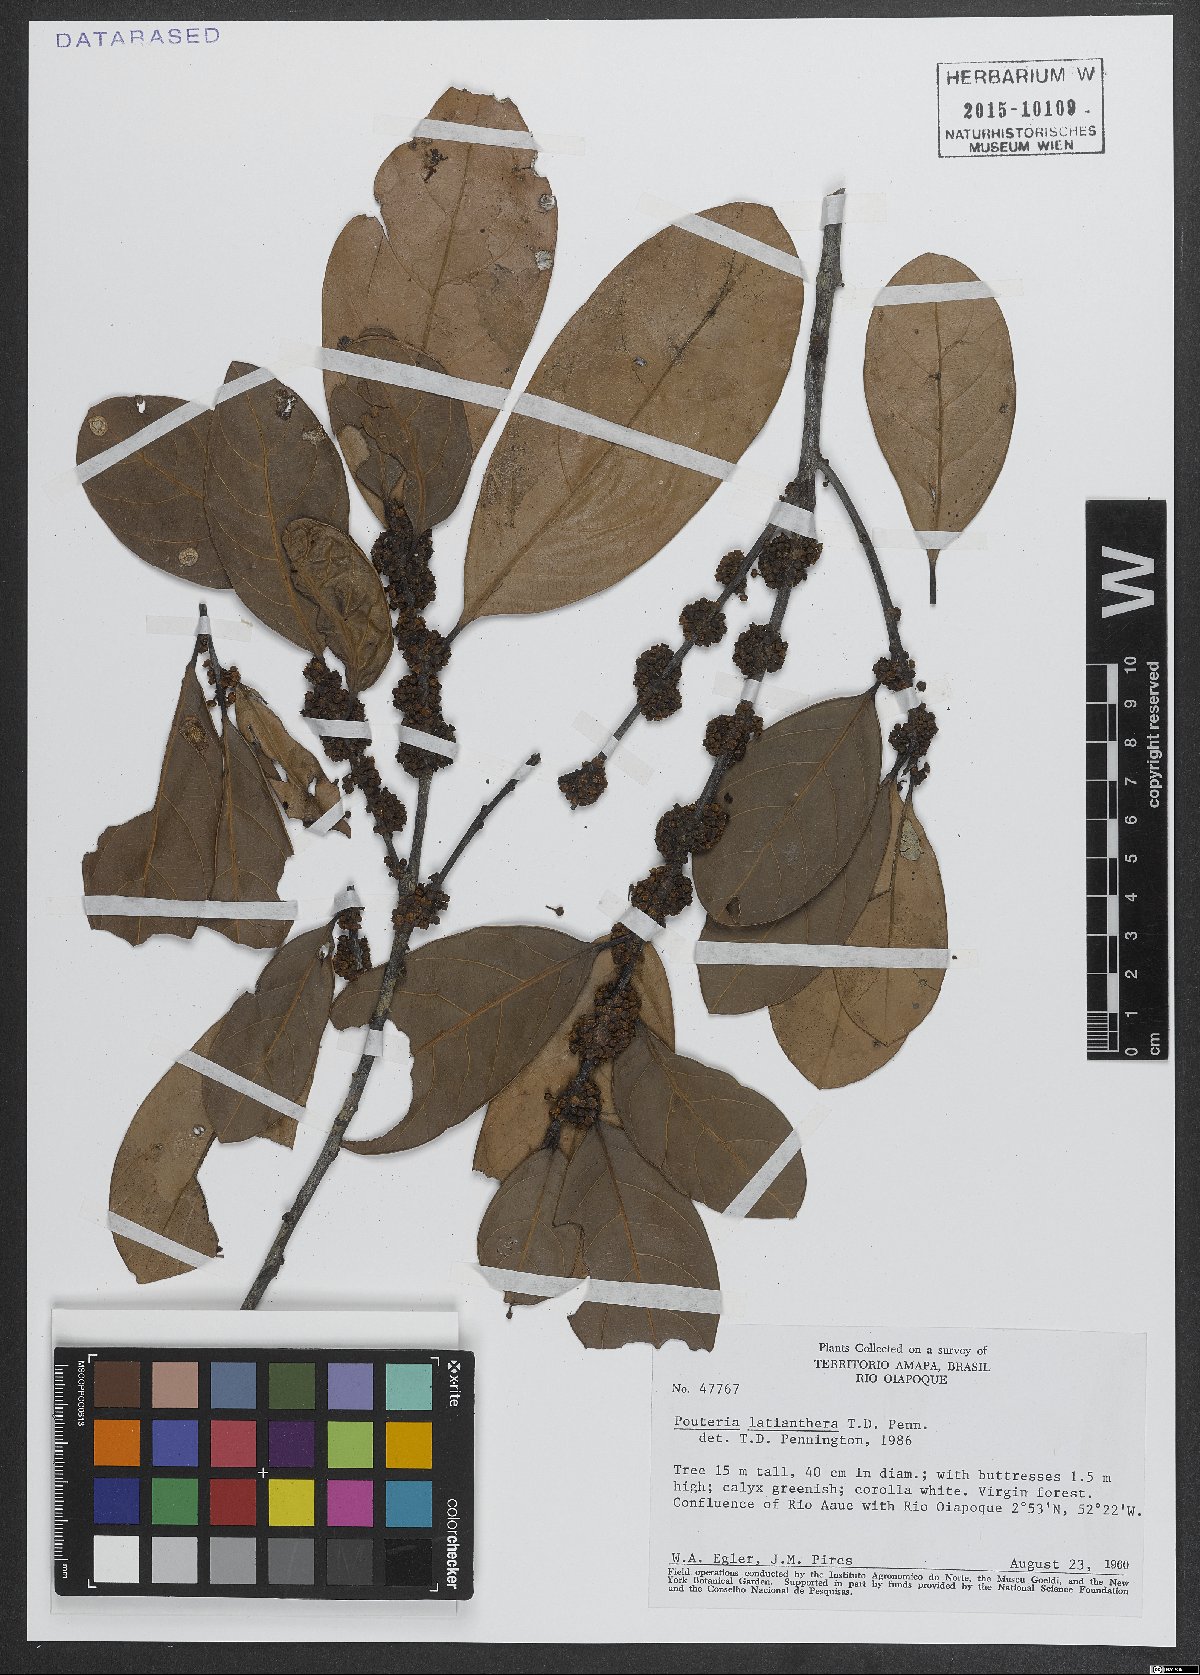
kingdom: Plantae
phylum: Tracheophyta
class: Magnoliopsida
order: Ericales
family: Sapotaceae
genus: Pouteria
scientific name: Pouteria latianthera
